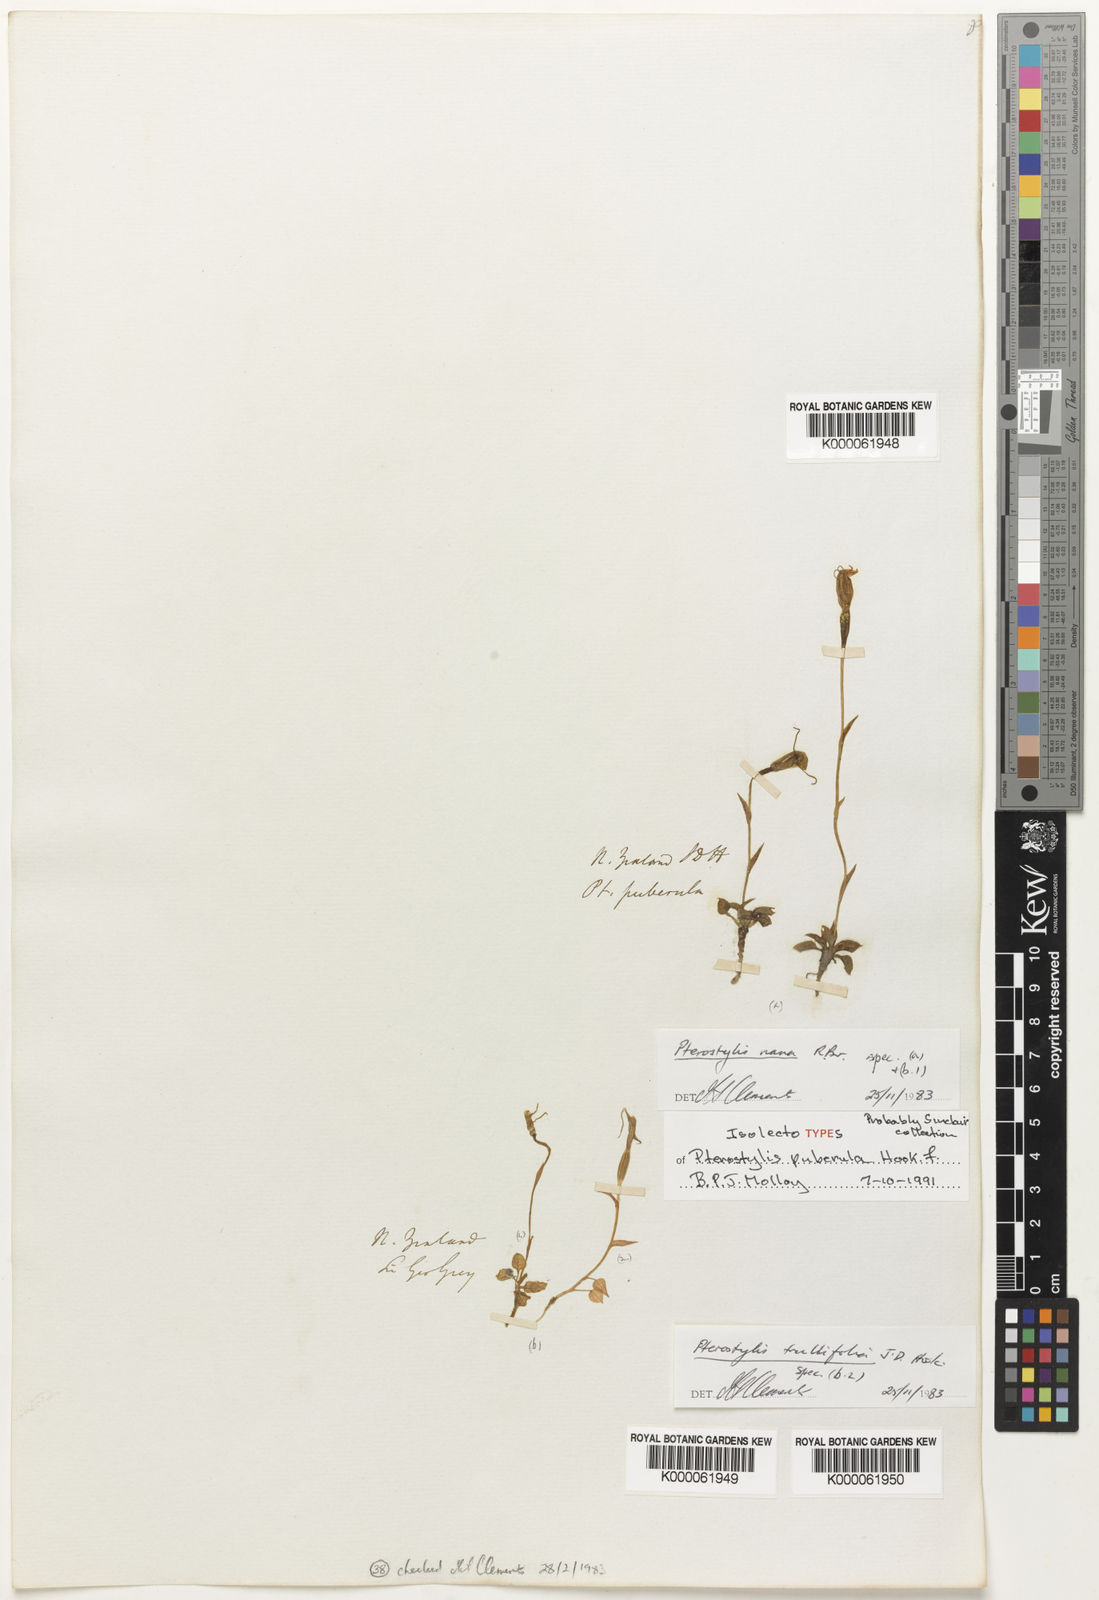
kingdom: Plantae
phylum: Tracheophyta
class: Liliopsida
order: Asparagales
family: Orchidaceae
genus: Pterostylis
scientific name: Pterostylis trullifolia
